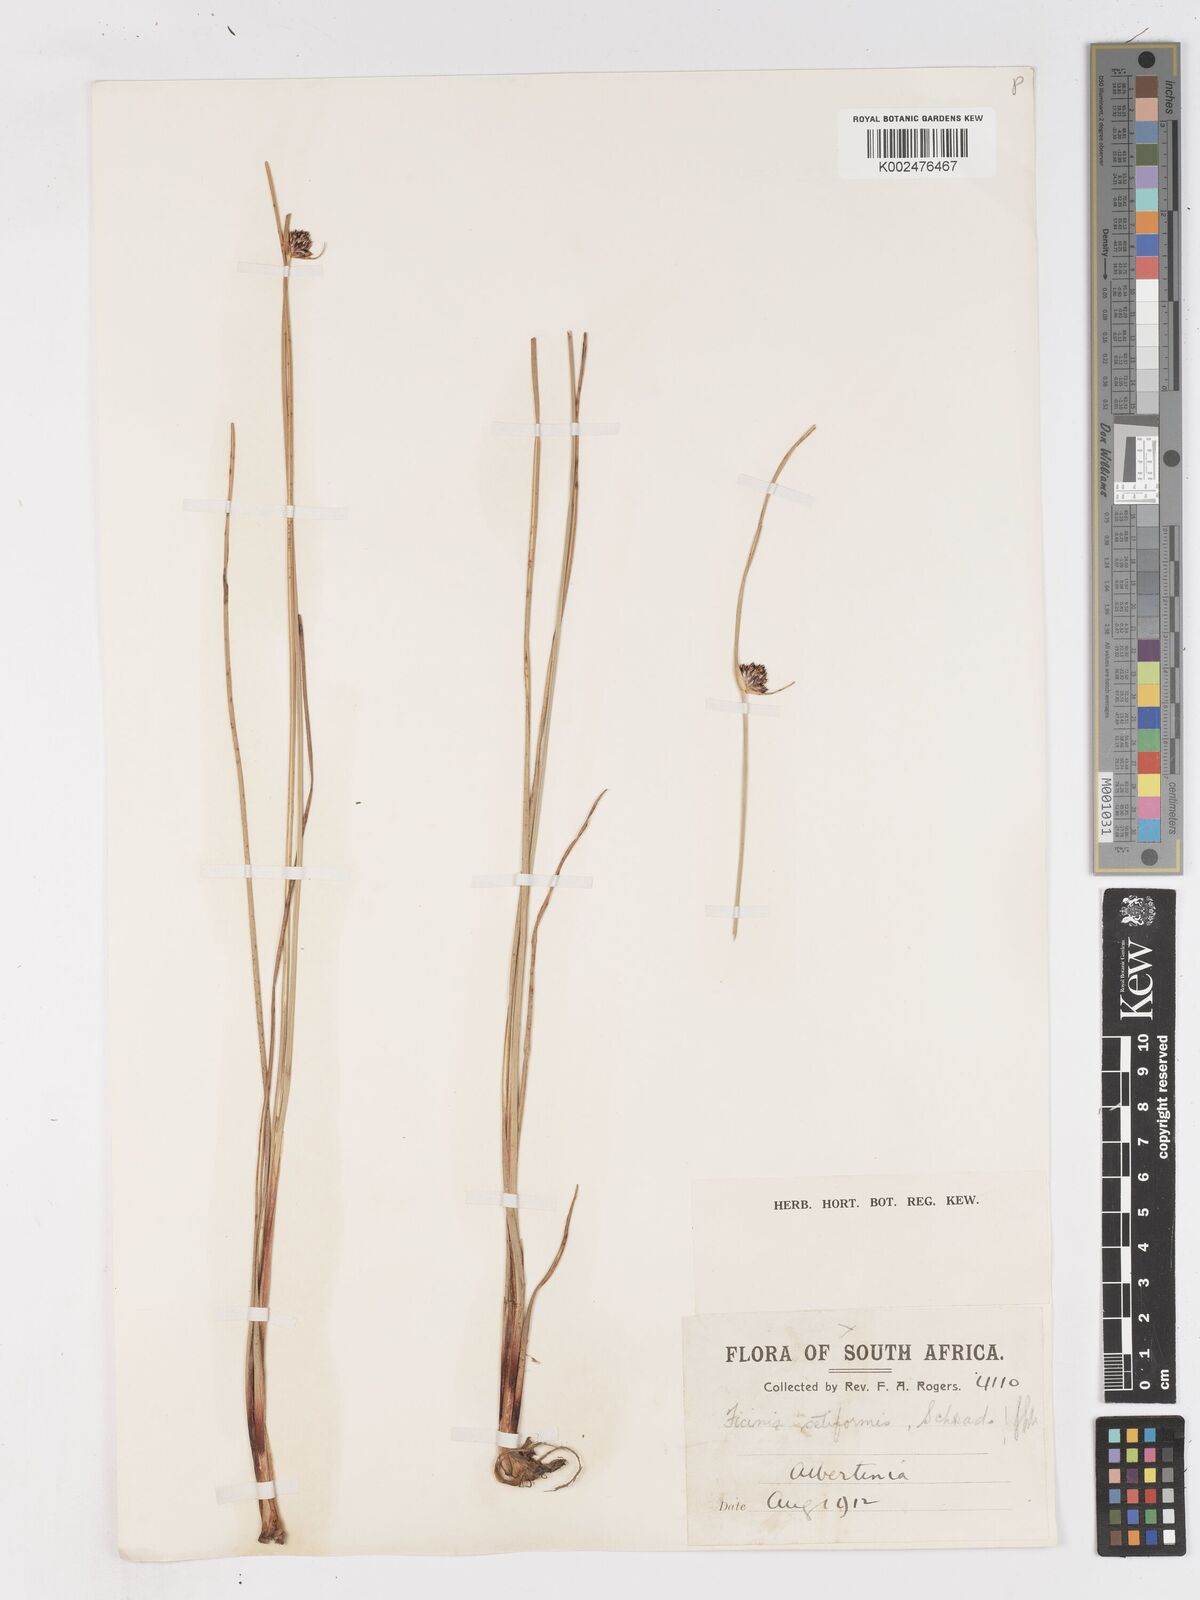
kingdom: Plantae
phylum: Tracheophyta
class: Liliopsida
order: Poales
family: Cyperaceae
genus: Ficinia
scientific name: Ficinia indica
